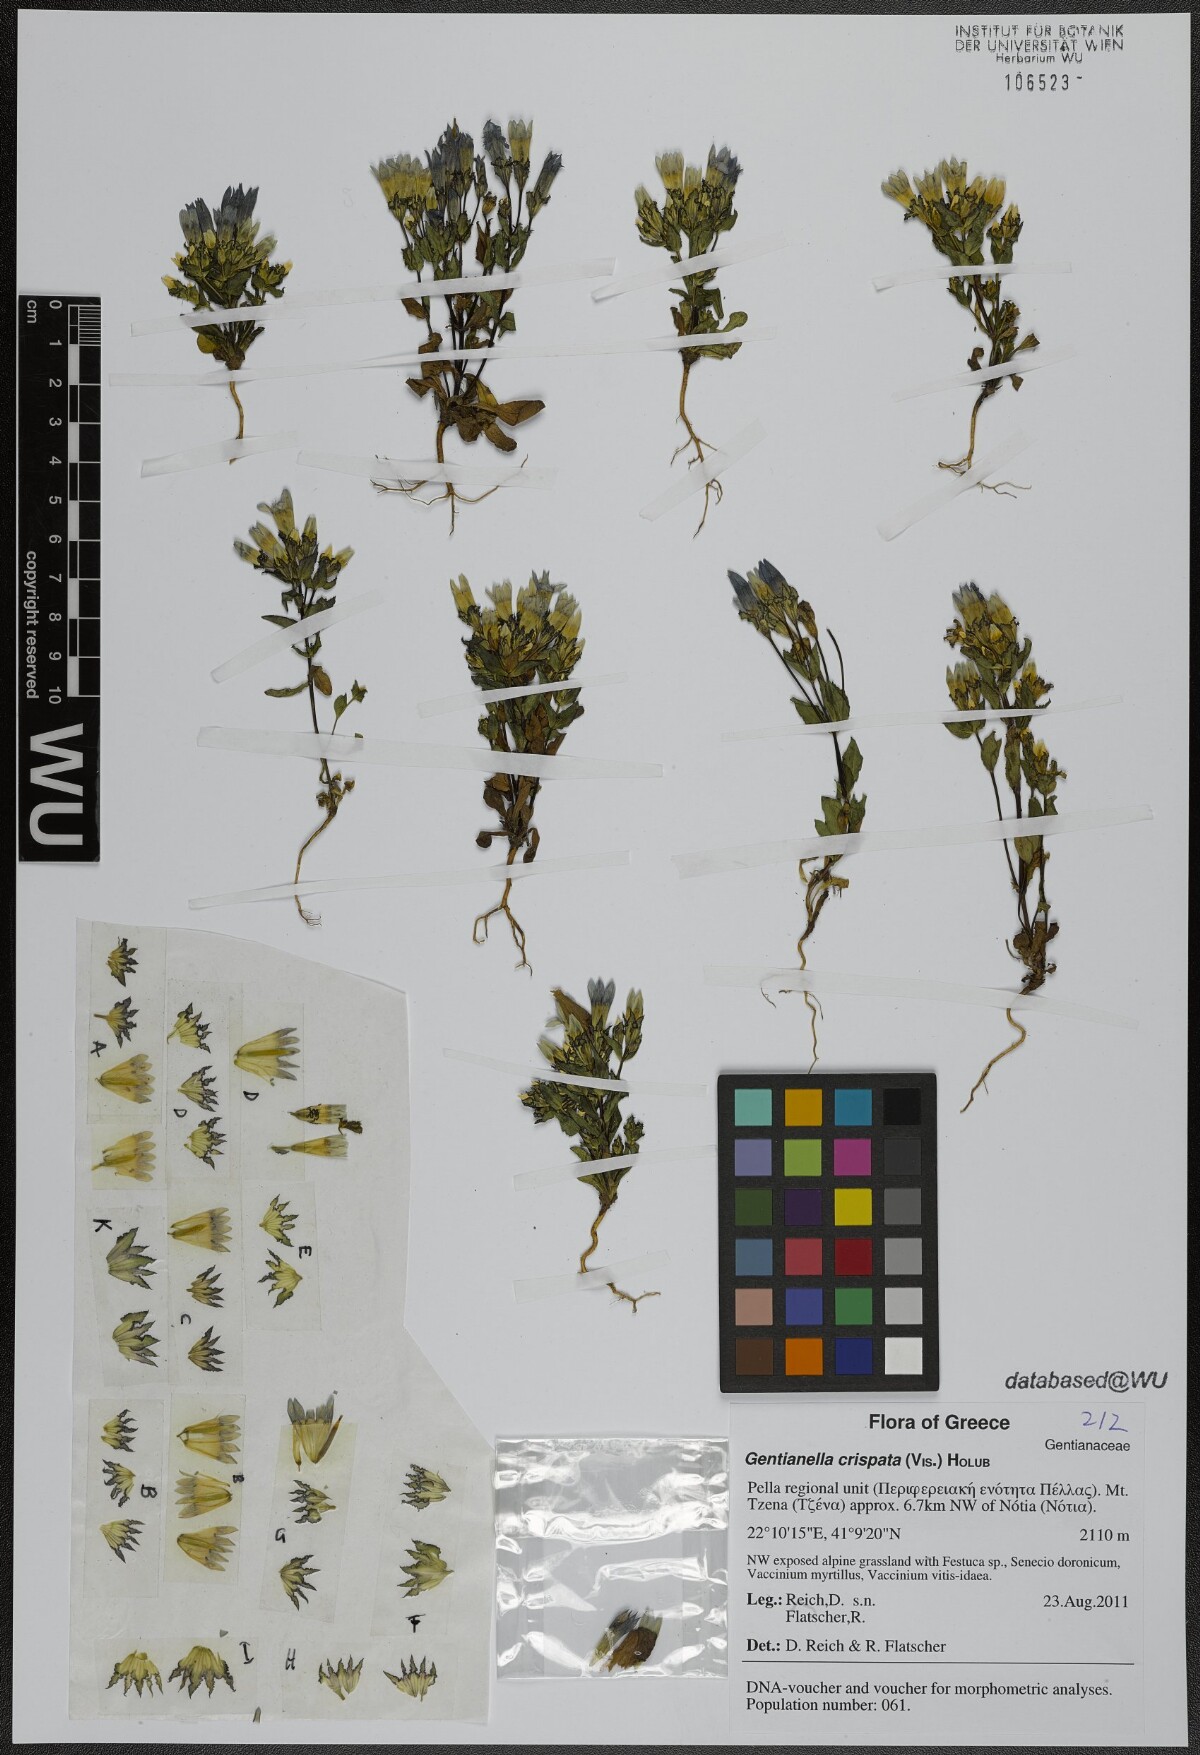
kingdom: Plantae
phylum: Tracheophyta
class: Magnoliopsida
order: Gentianales
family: Gentianaceae
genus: Gentianella
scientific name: Gentianella crispata
